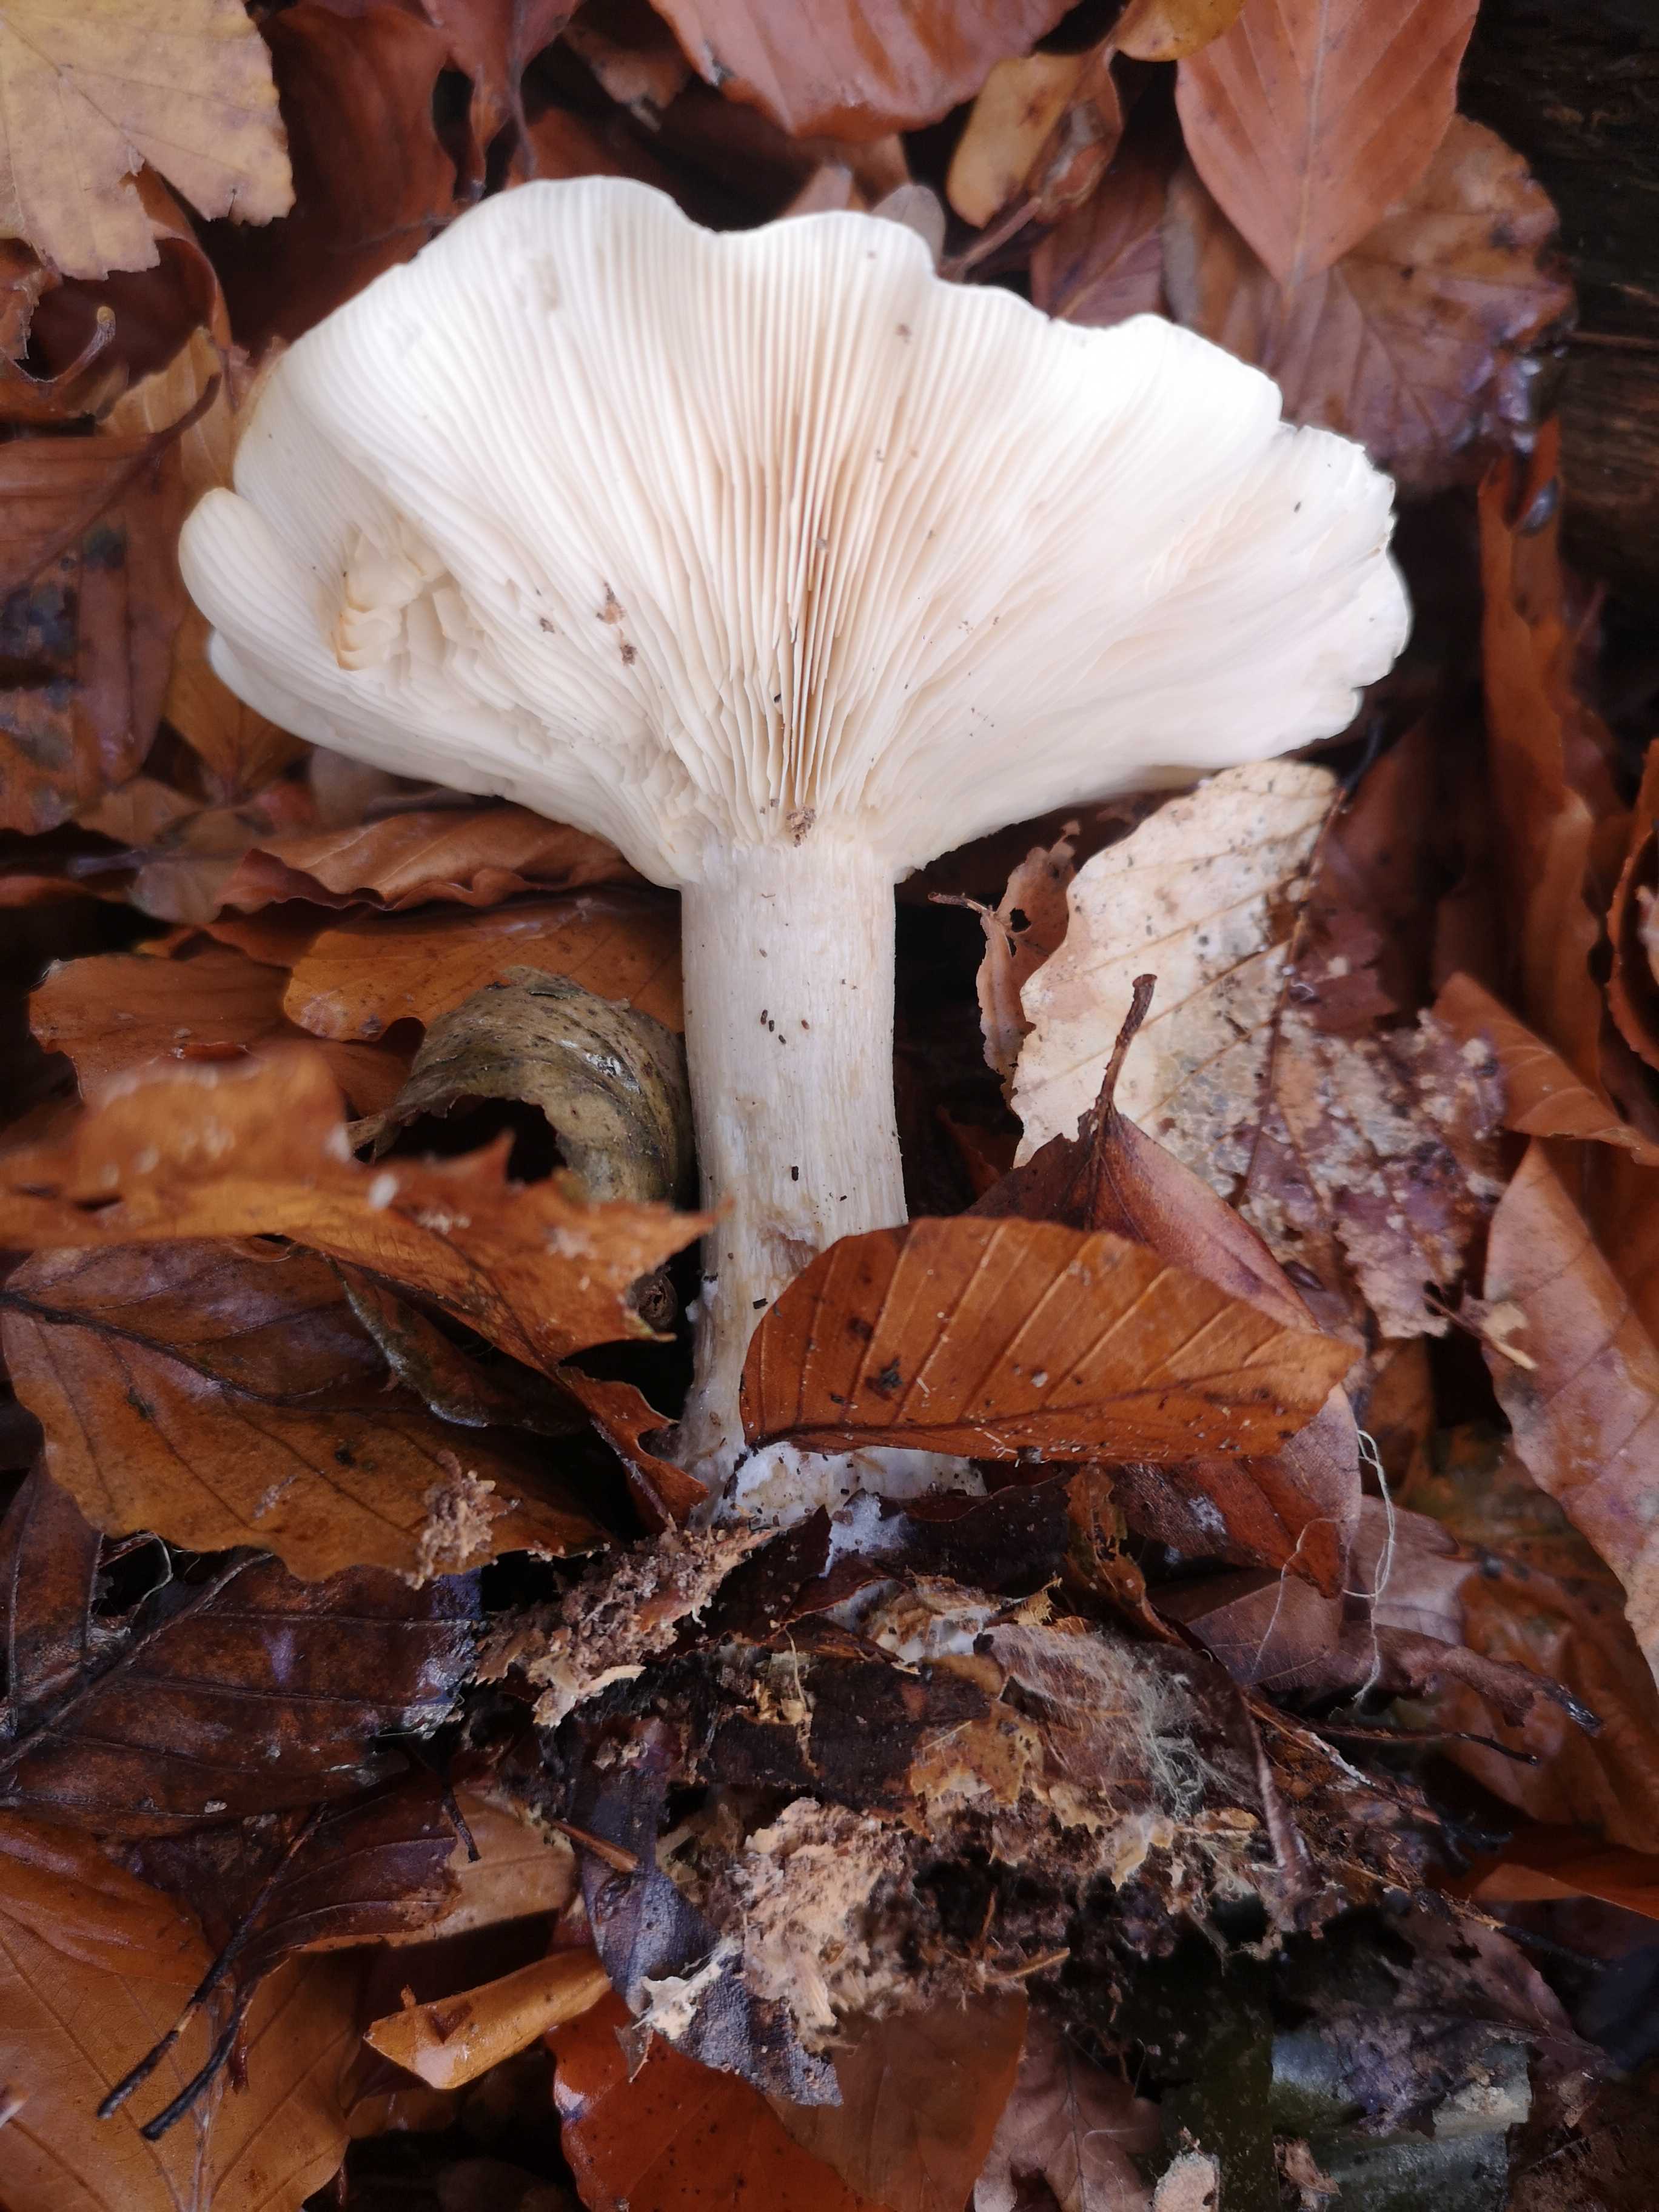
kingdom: Fungi
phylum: Basidiomycota
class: Agaricomycetes
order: Agaricales
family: Tricholomataceae
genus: Clitocybe
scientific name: Clitocybe nebularis
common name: tåge-tragthat
